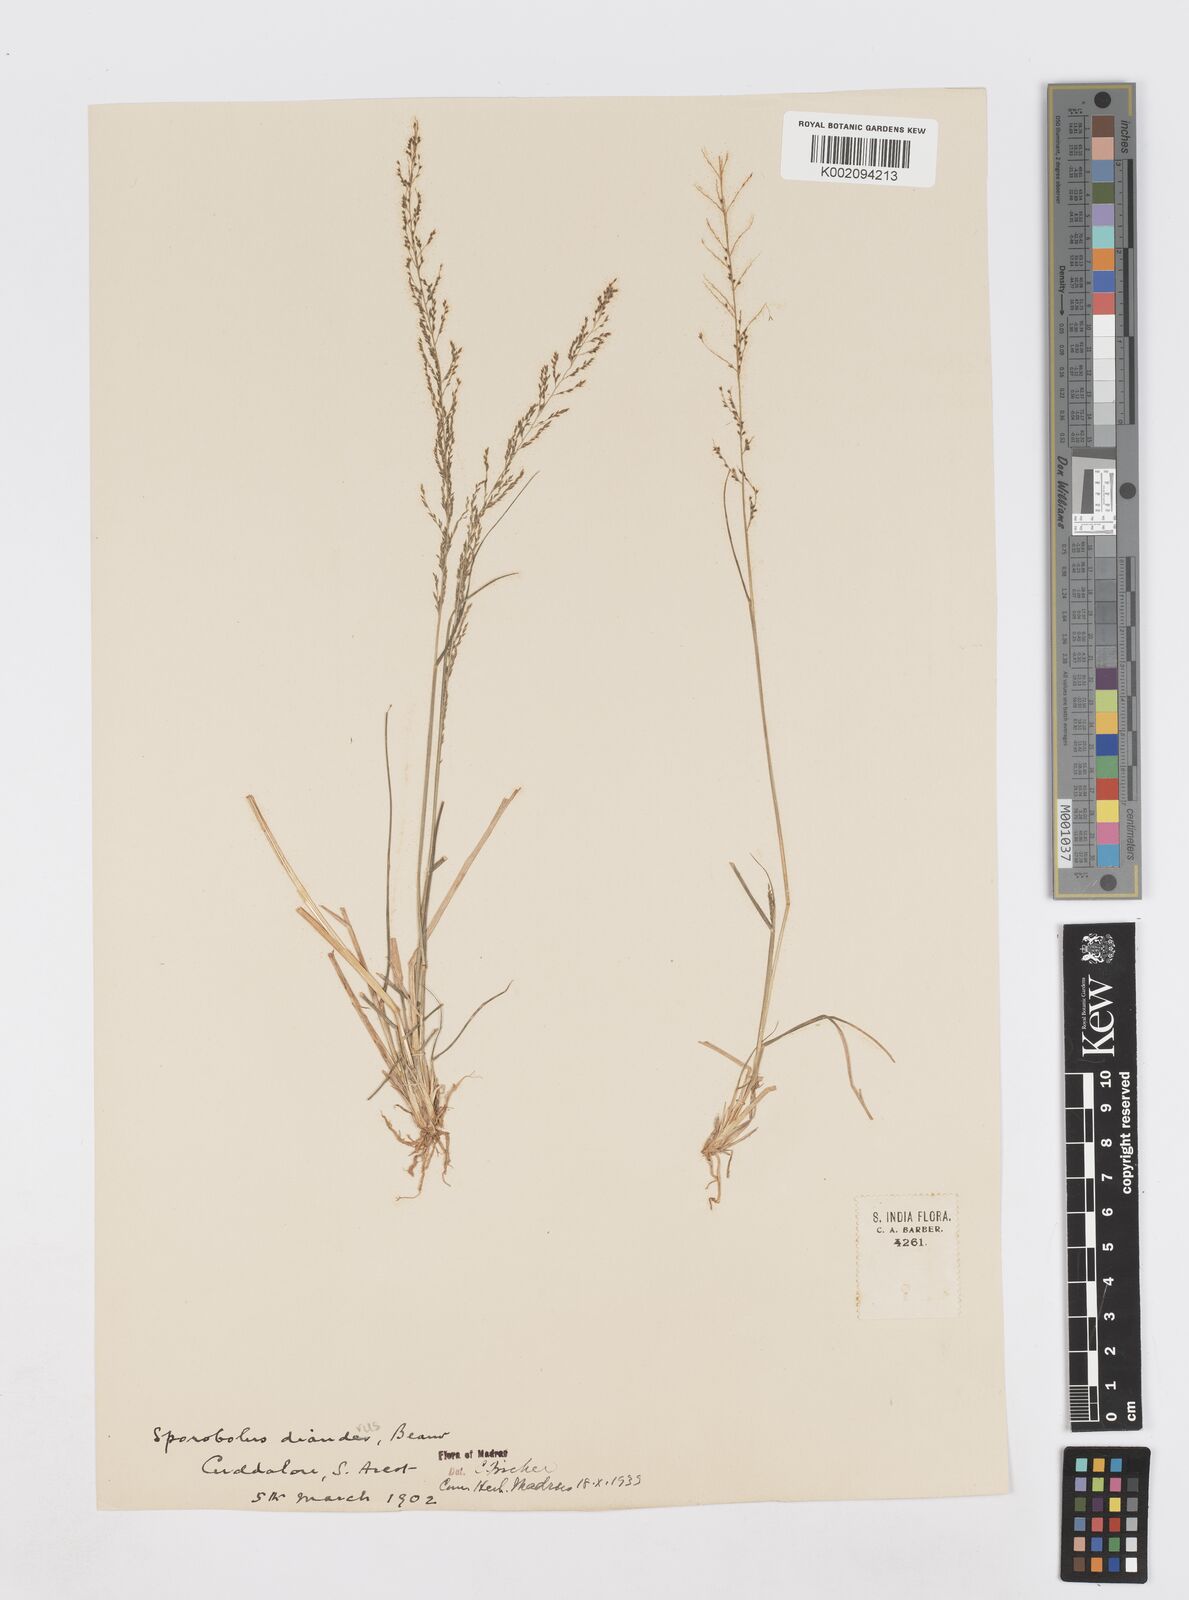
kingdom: Plantae
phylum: Tracheophyta
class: Liliopsida
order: Poales
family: Poaceae
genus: Sporobolus
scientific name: Sporobolus diandrus
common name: Tussock dropseed
